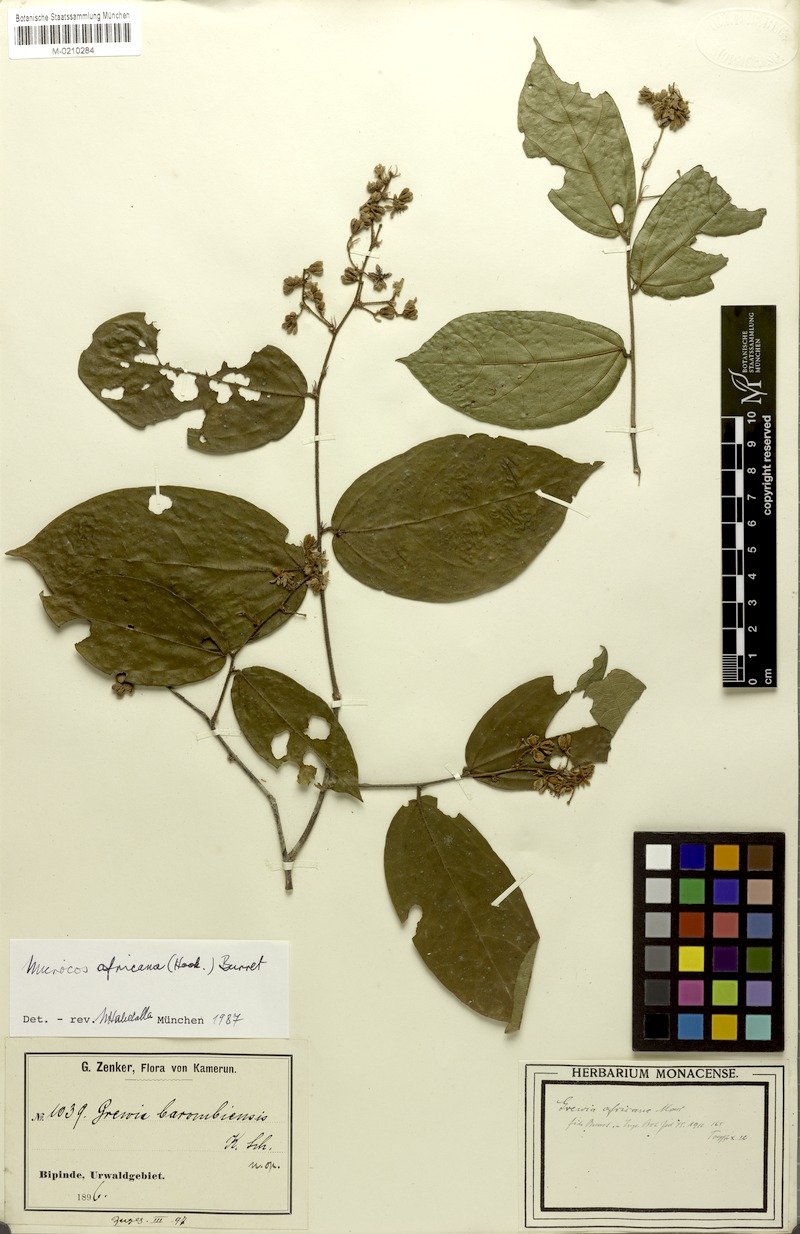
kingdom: Plantae
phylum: Tracheophyta
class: Magnoliopsida
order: Malvales
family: Malvaceae
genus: Microcos
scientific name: Microcos africana
